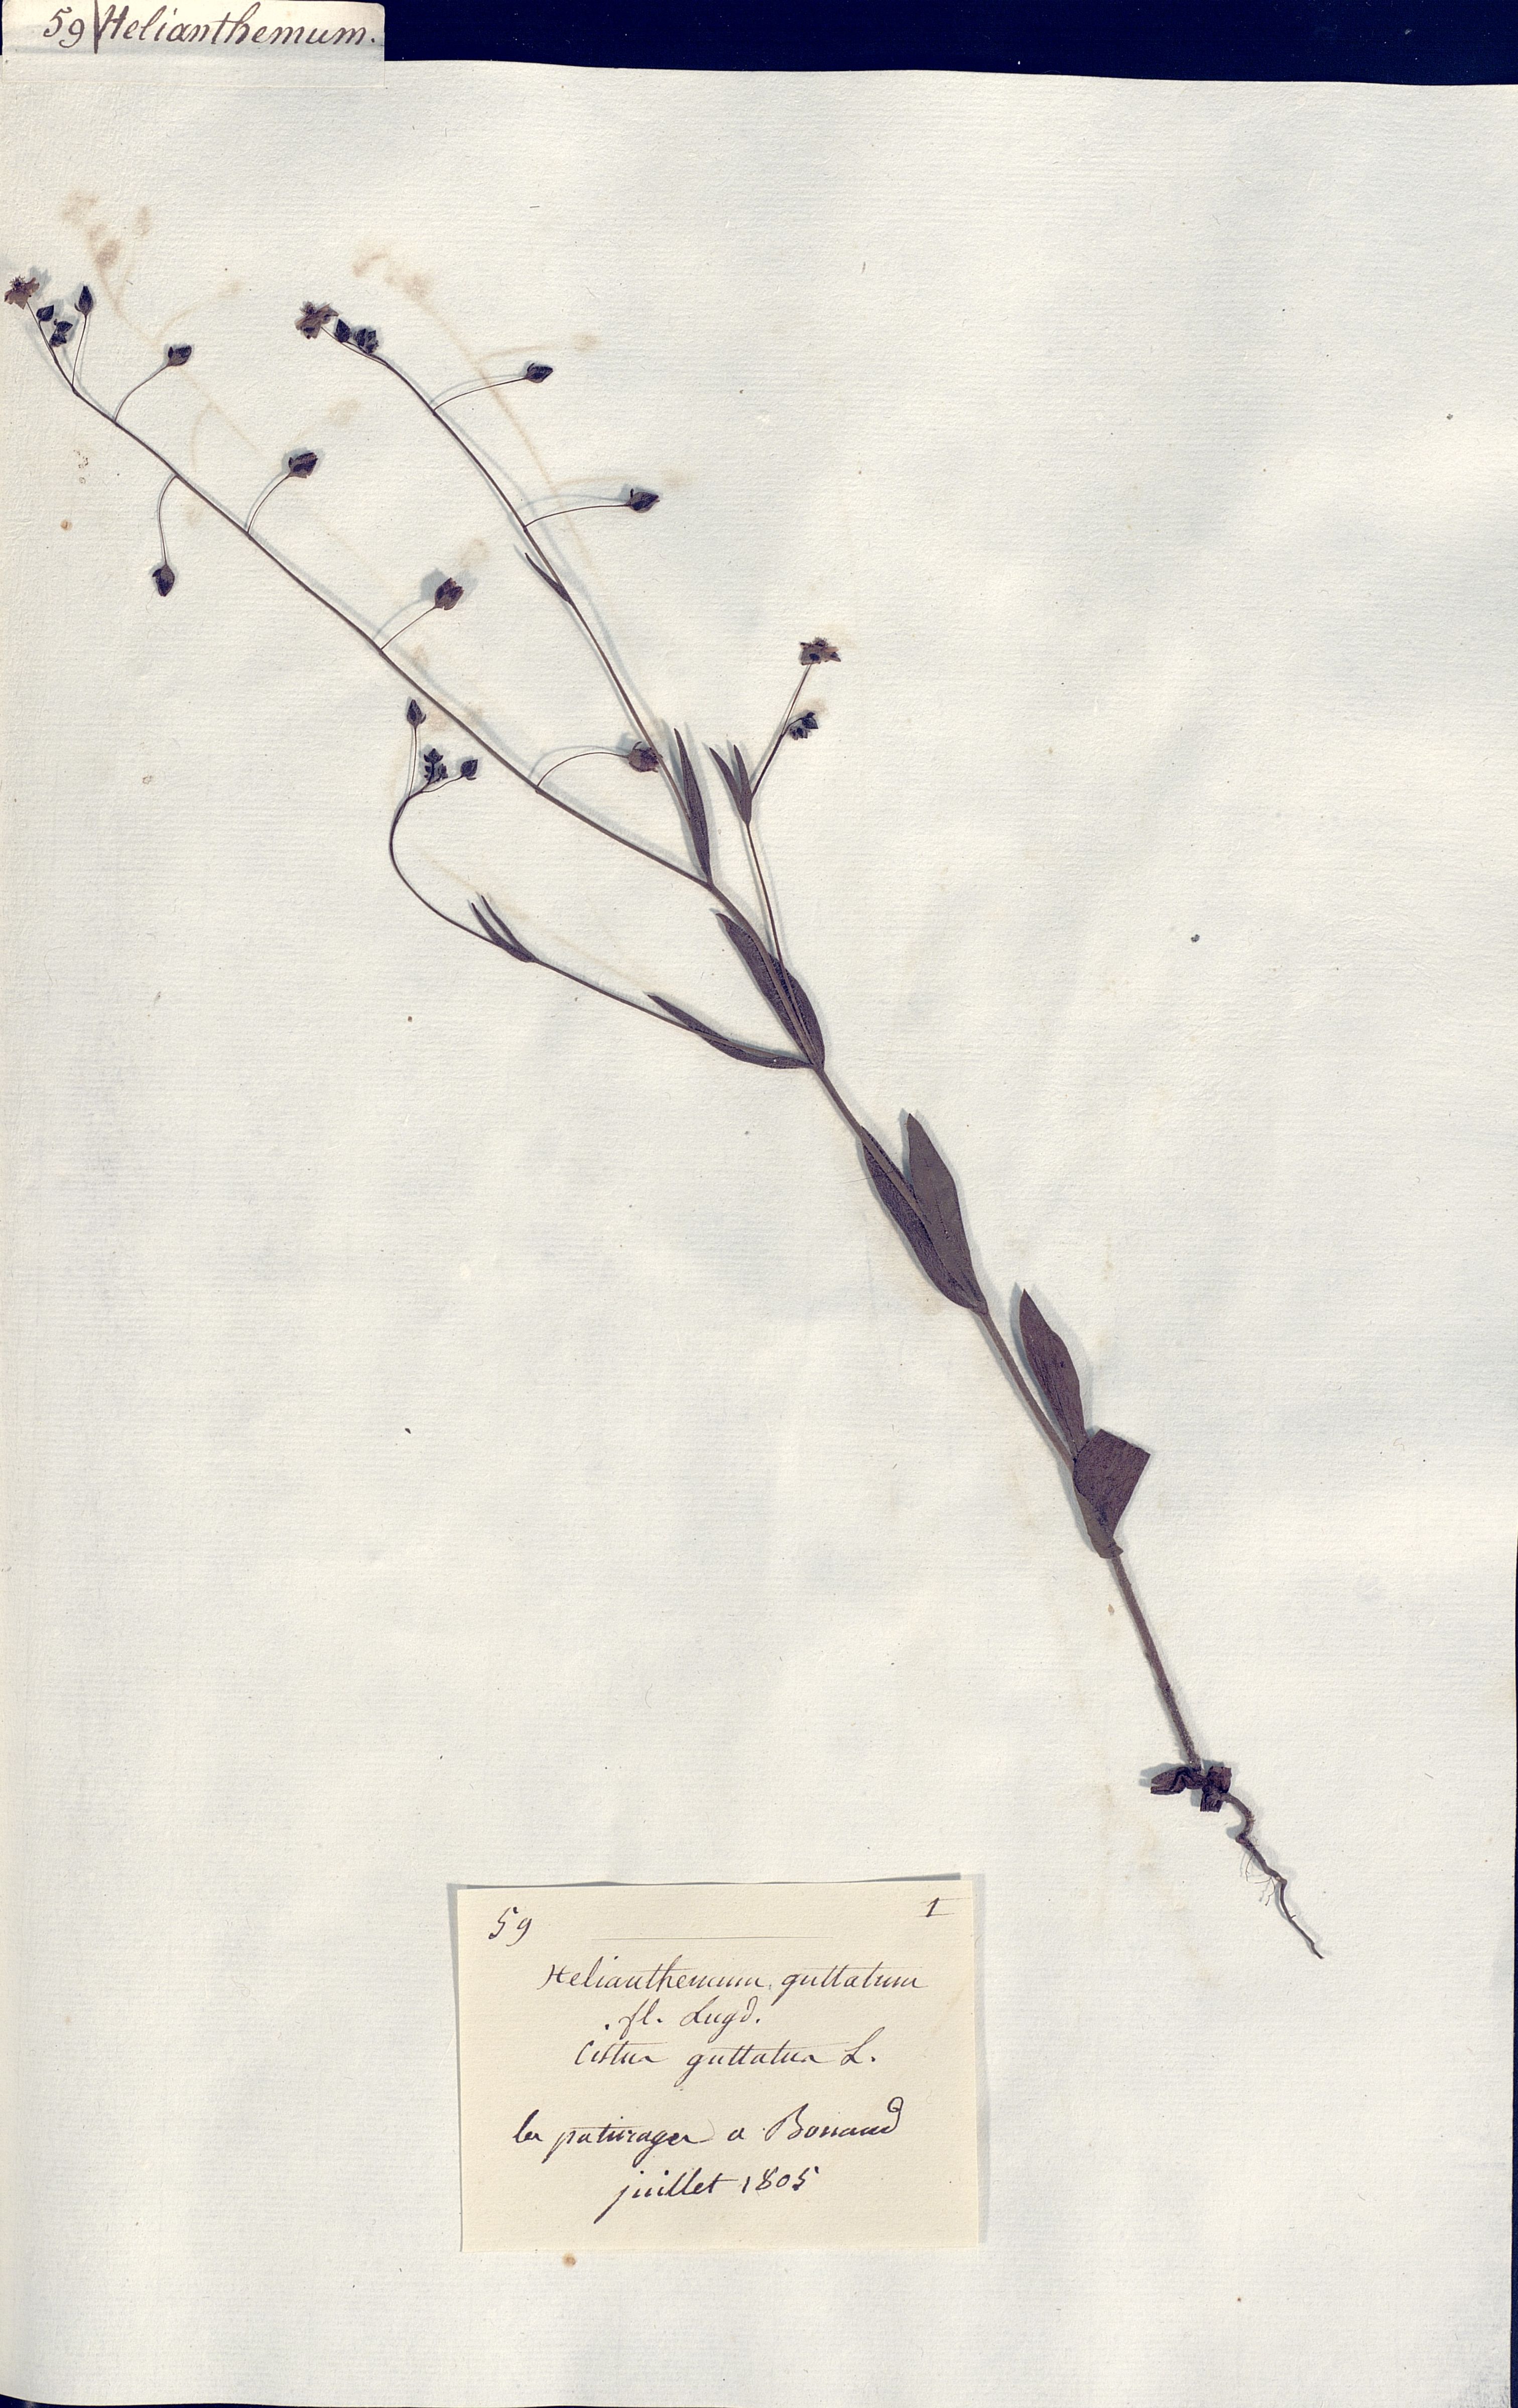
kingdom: Plantae
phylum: Tracheophyta
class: Magnoliopsida
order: Malvales
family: Cistaceae
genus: Tuberaria
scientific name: Tuberaria guttata
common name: Spotted rock-rose
